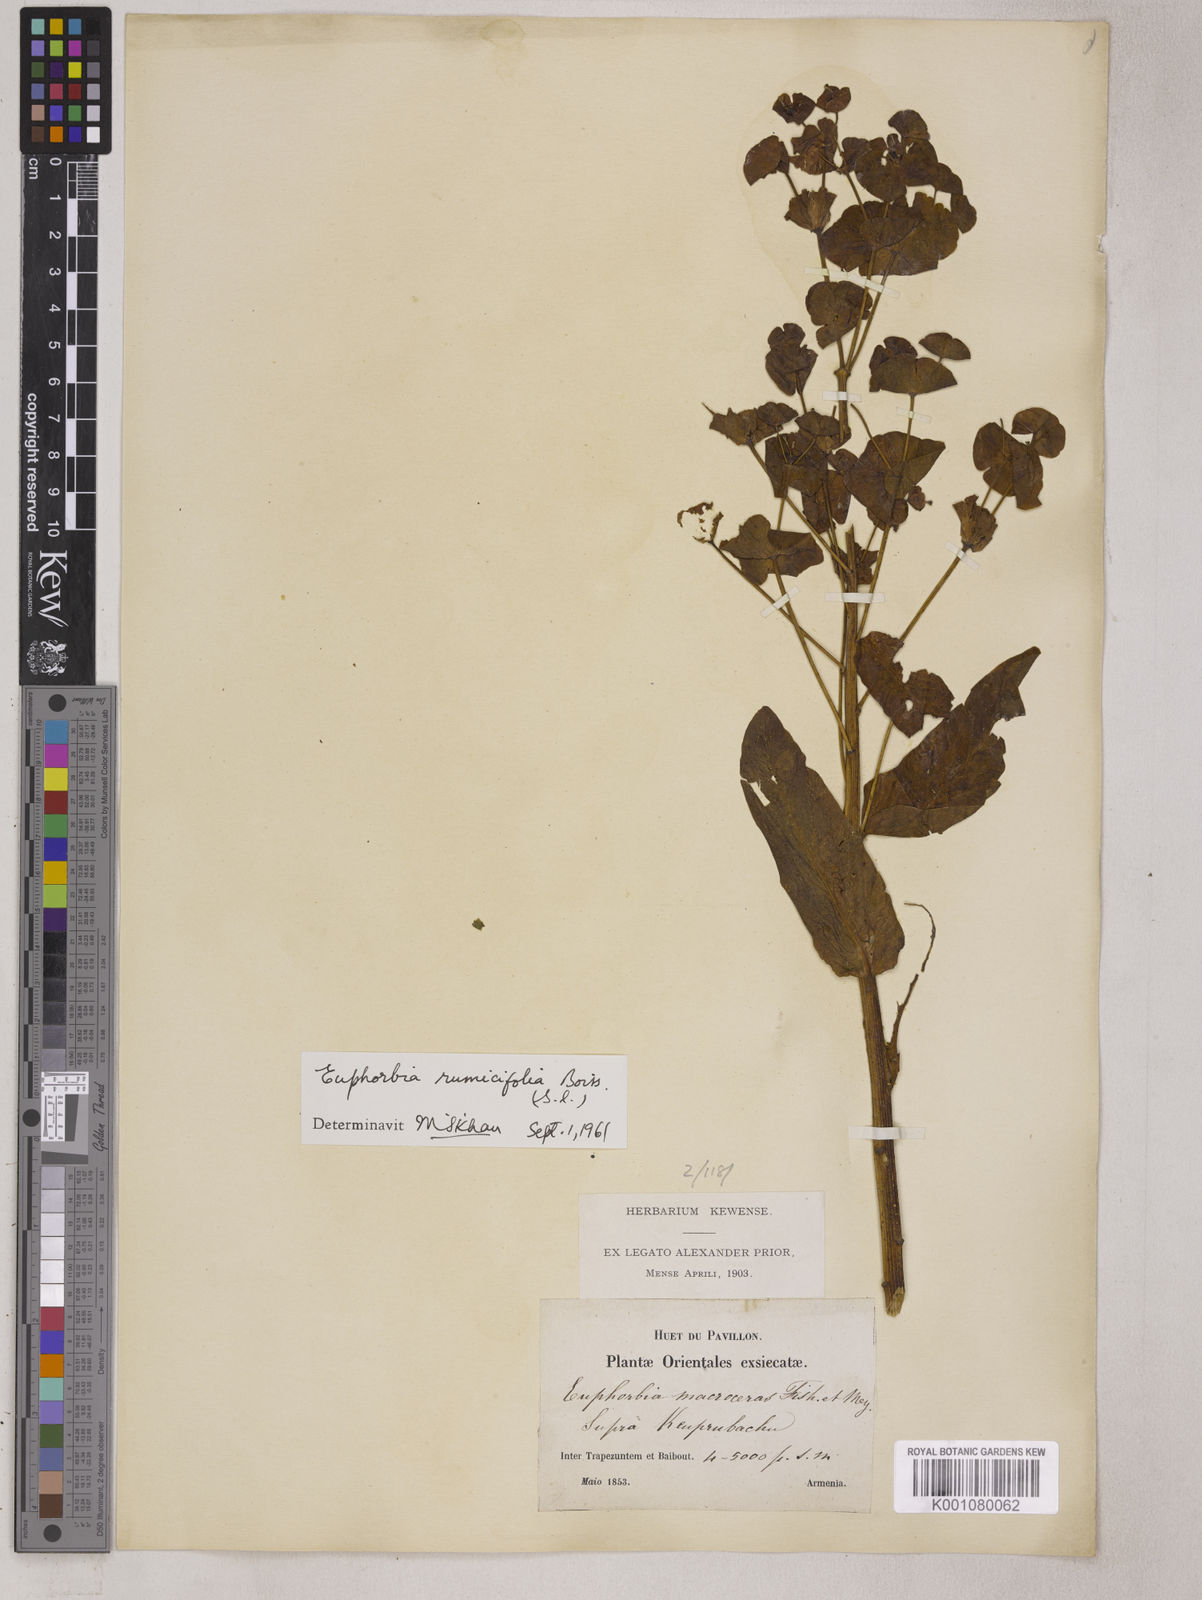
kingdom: Plantae
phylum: Tracheophyta
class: Magnoliopsida
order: Malpighiales
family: Euphorbiaceae
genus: Euphorbia
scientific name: Euphorbia oblongifolia
